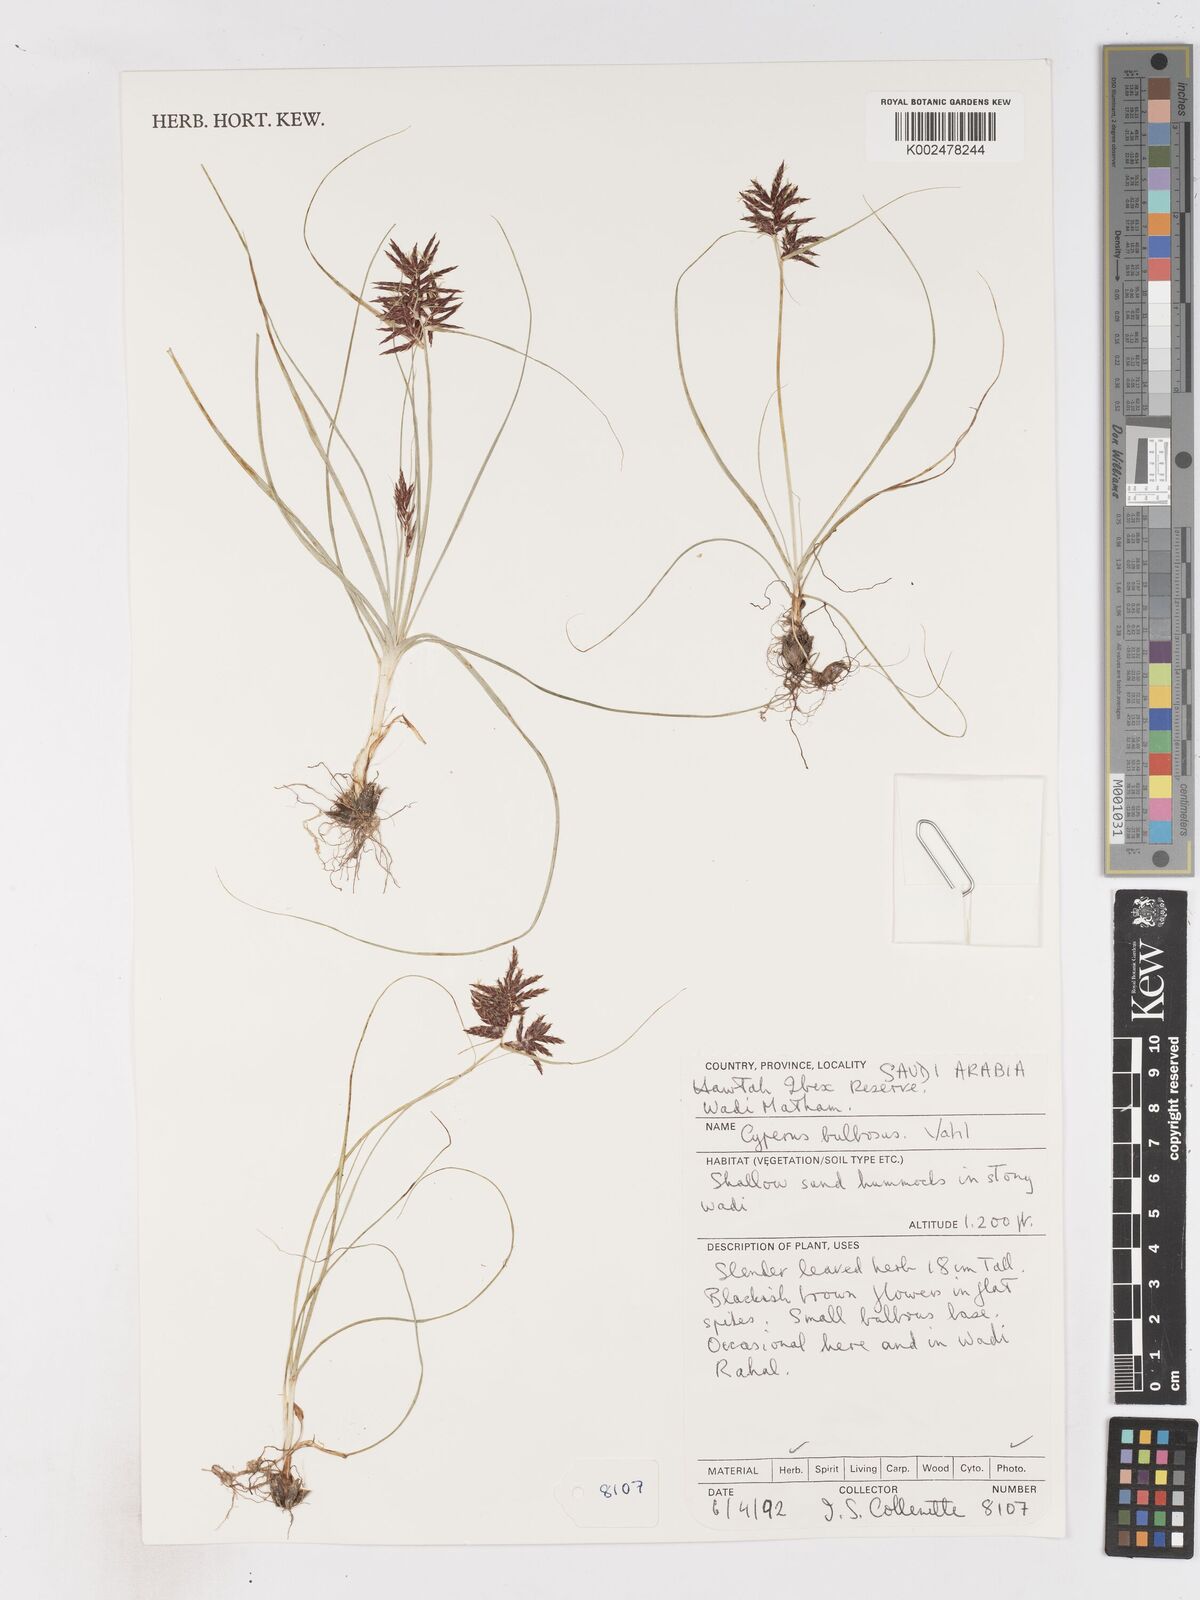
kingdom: Plantae
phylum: Tracheophyta
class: Liliopsida
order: Poales
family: Cyperaceae
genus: Cyperus
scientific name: Cyperus bulbosus
